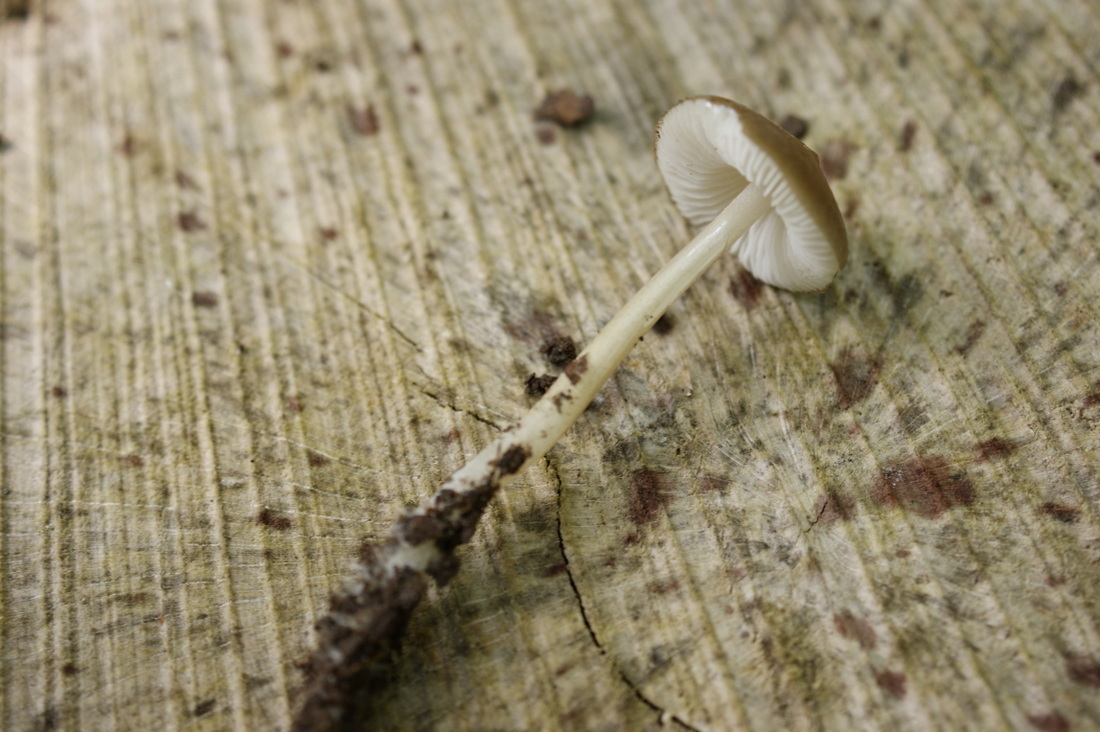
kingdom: Fungi
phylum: Basidiomycota
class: Agaricomycetes
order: Agaricales
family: Porotheleaceae
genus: Hydropodia
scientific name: Hydropodia subalpina
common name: vår-fnugfod
